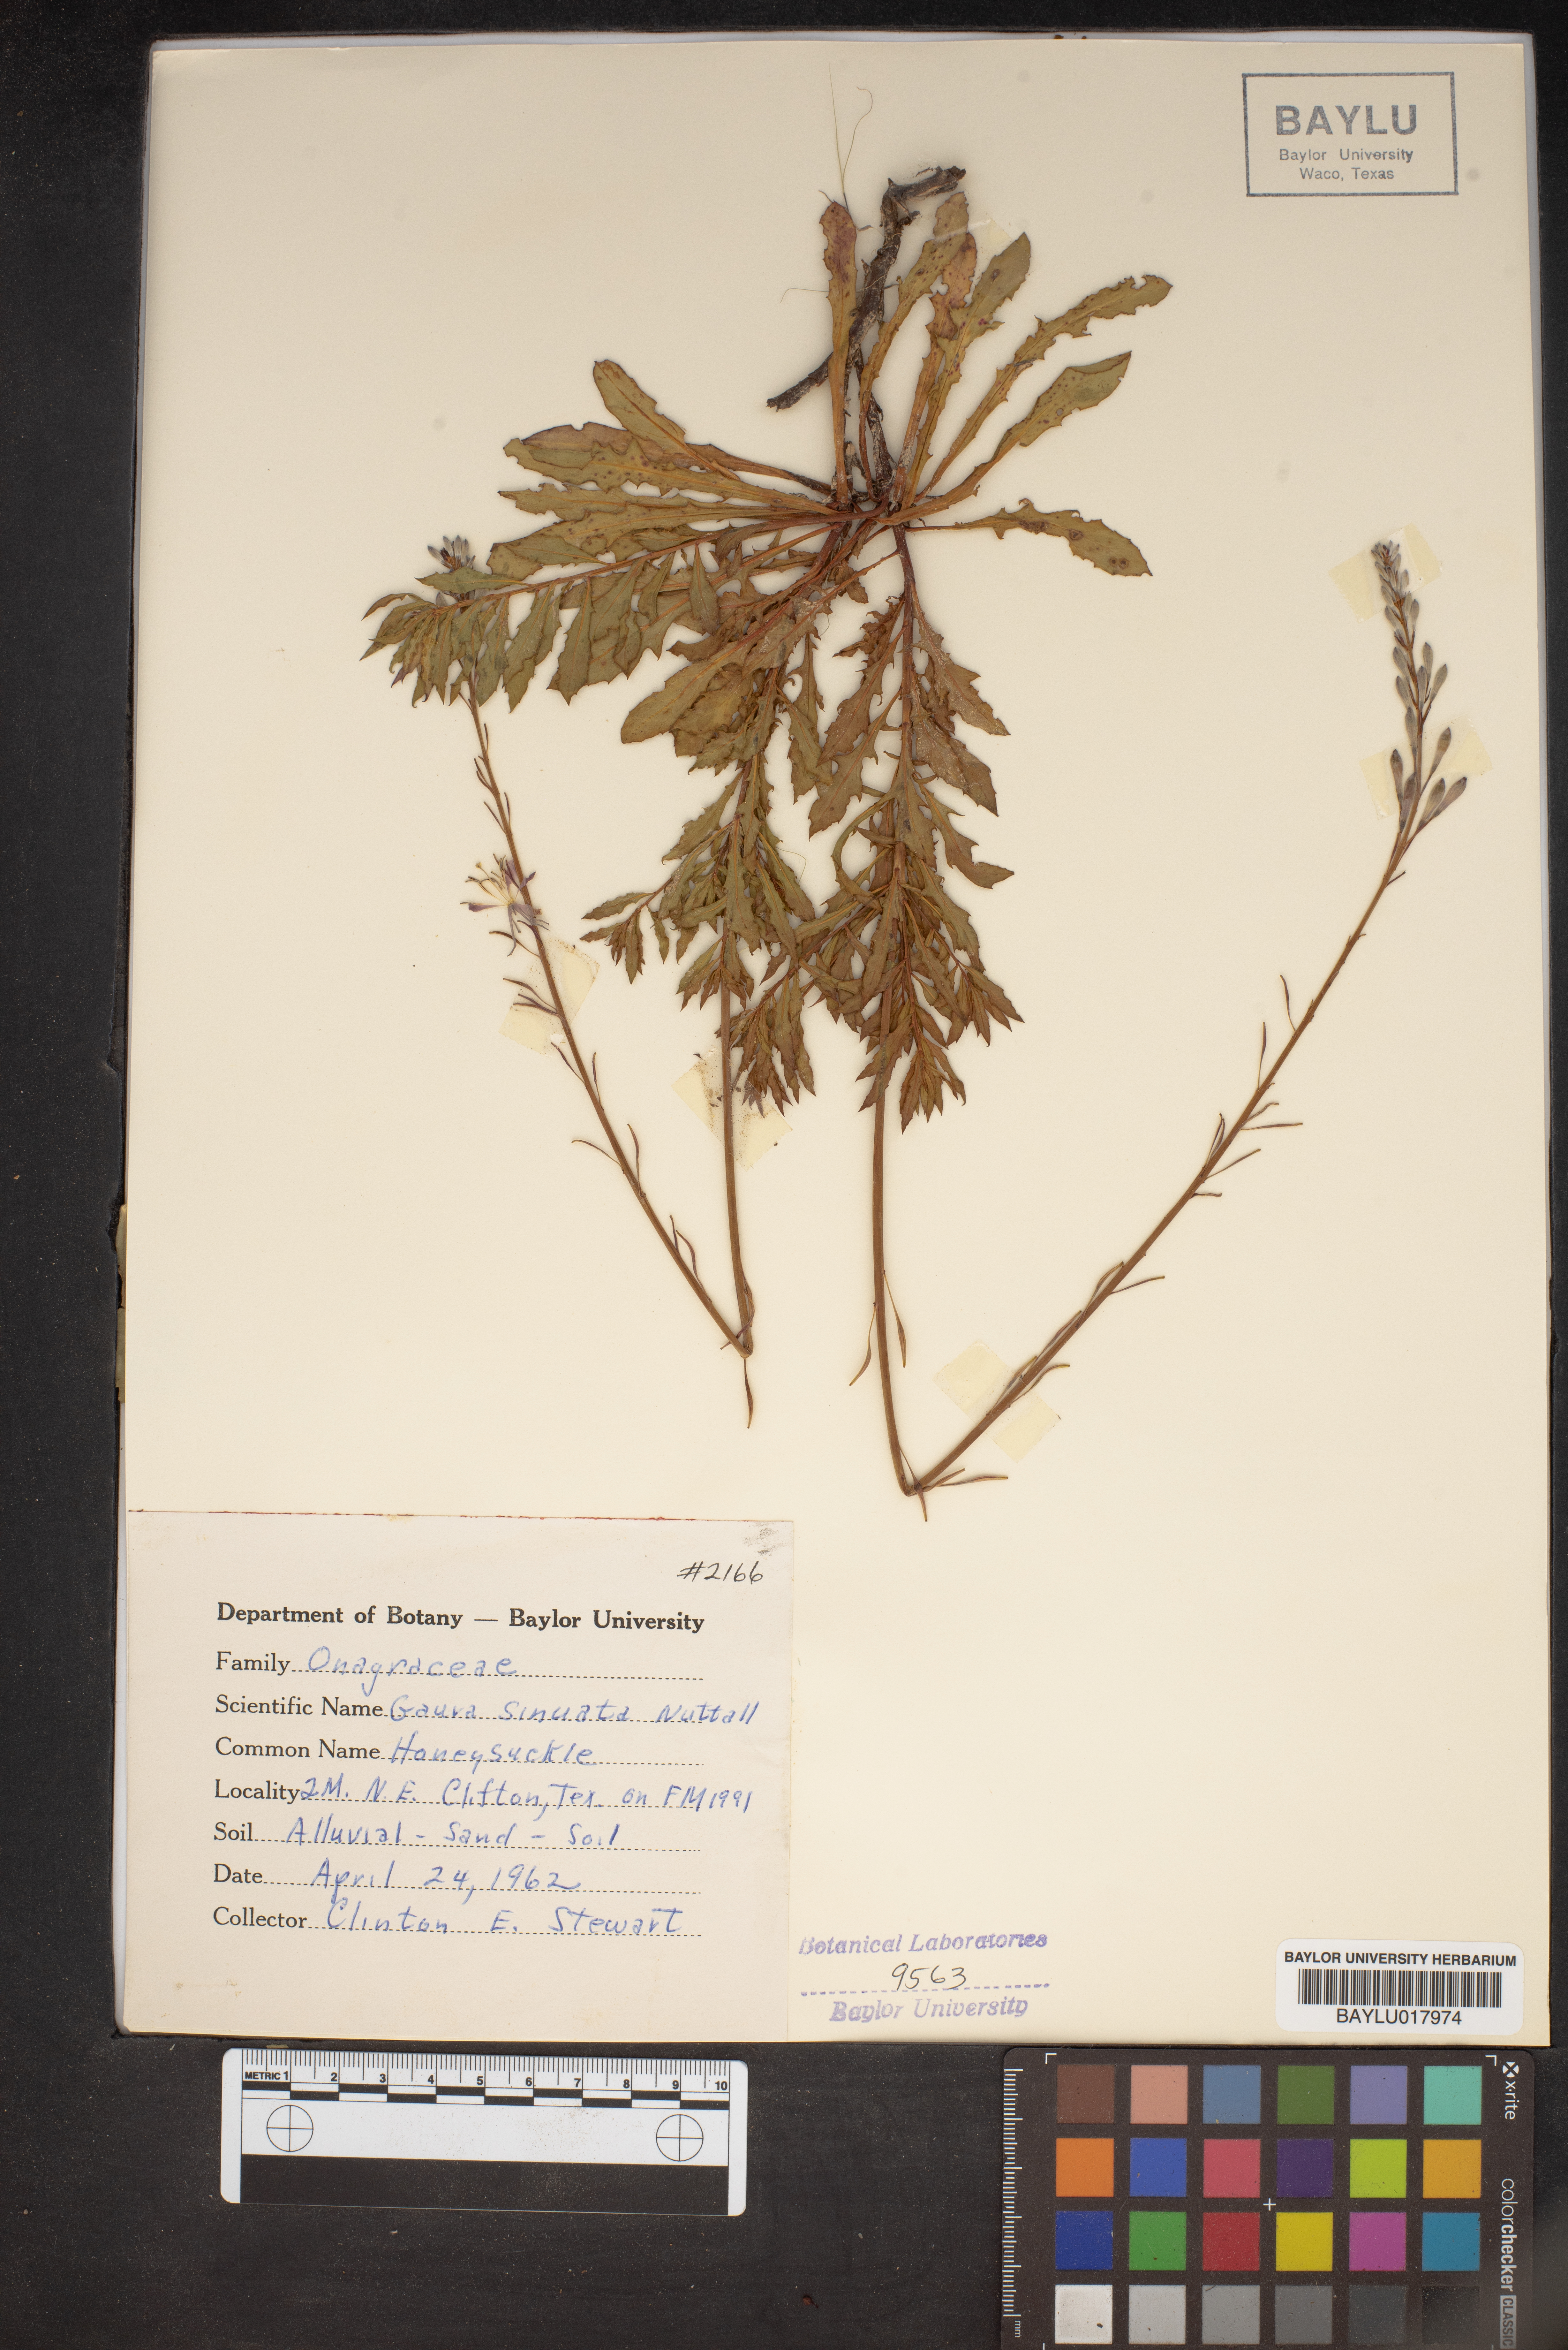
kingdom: Plantae
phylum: Tracheophyta
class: Magnoliopsida
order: Myrtales
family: Onagraceae
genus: Oenothera
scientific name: Oenothera sinuosa
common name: Wavyleaf beeblossom
